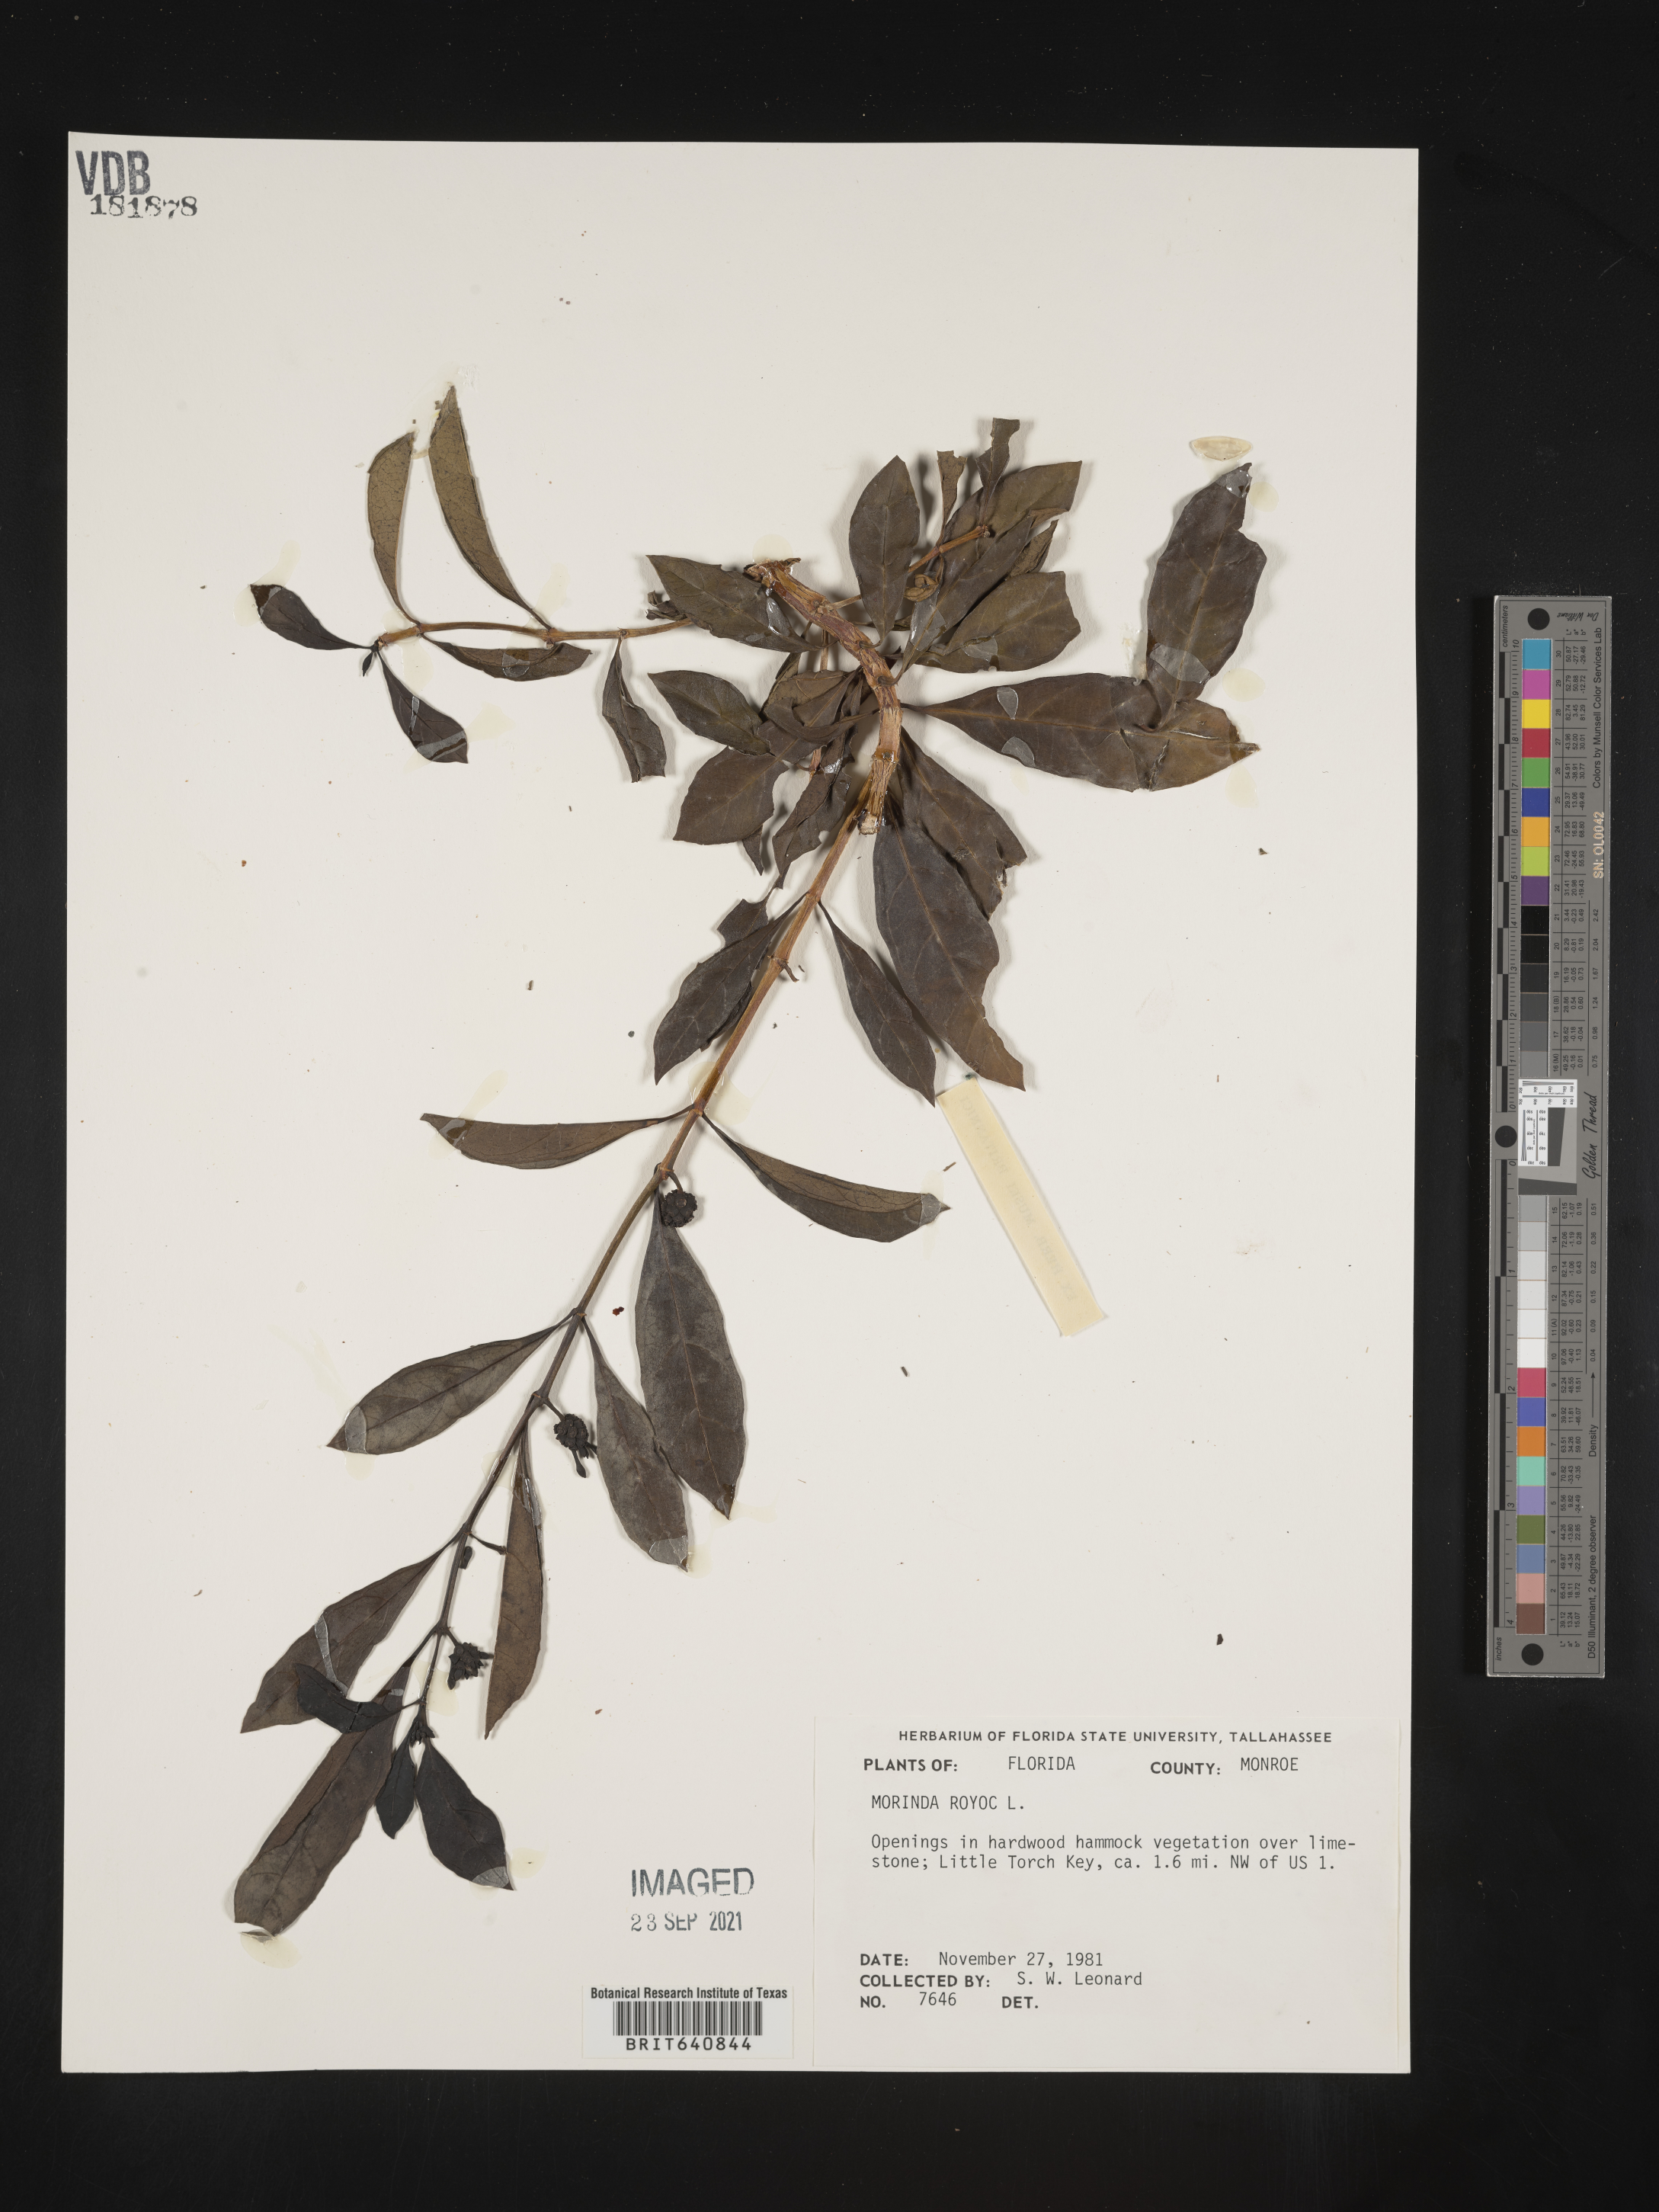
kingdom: Plantae
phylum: Tracheophyta
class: Magnoliopsida
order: Gentianales
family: Rubiaceae
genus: Morinda
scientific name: Morinda royoc
